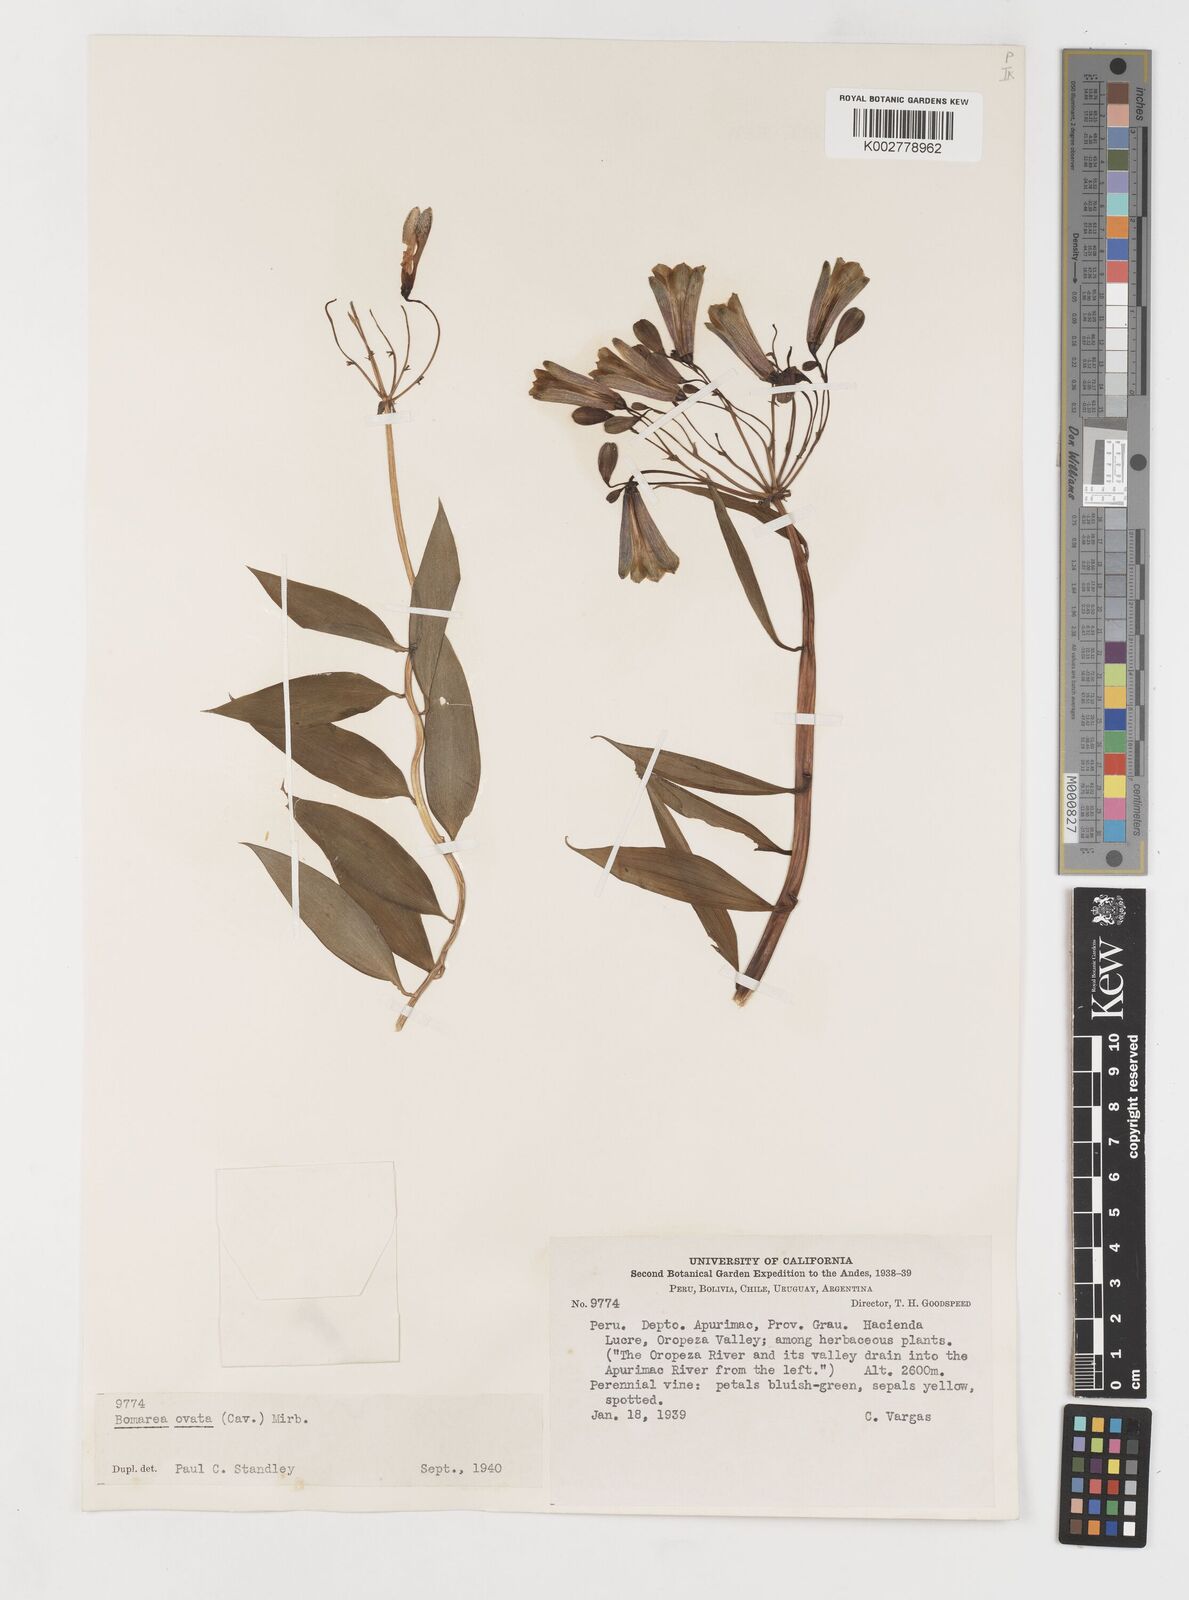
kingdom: Plantae
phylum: Tracheophyta
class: Liliopsida
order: Liliales
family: Alstroemeriaceae
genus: Bomarea
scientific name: Bomarea ovata
